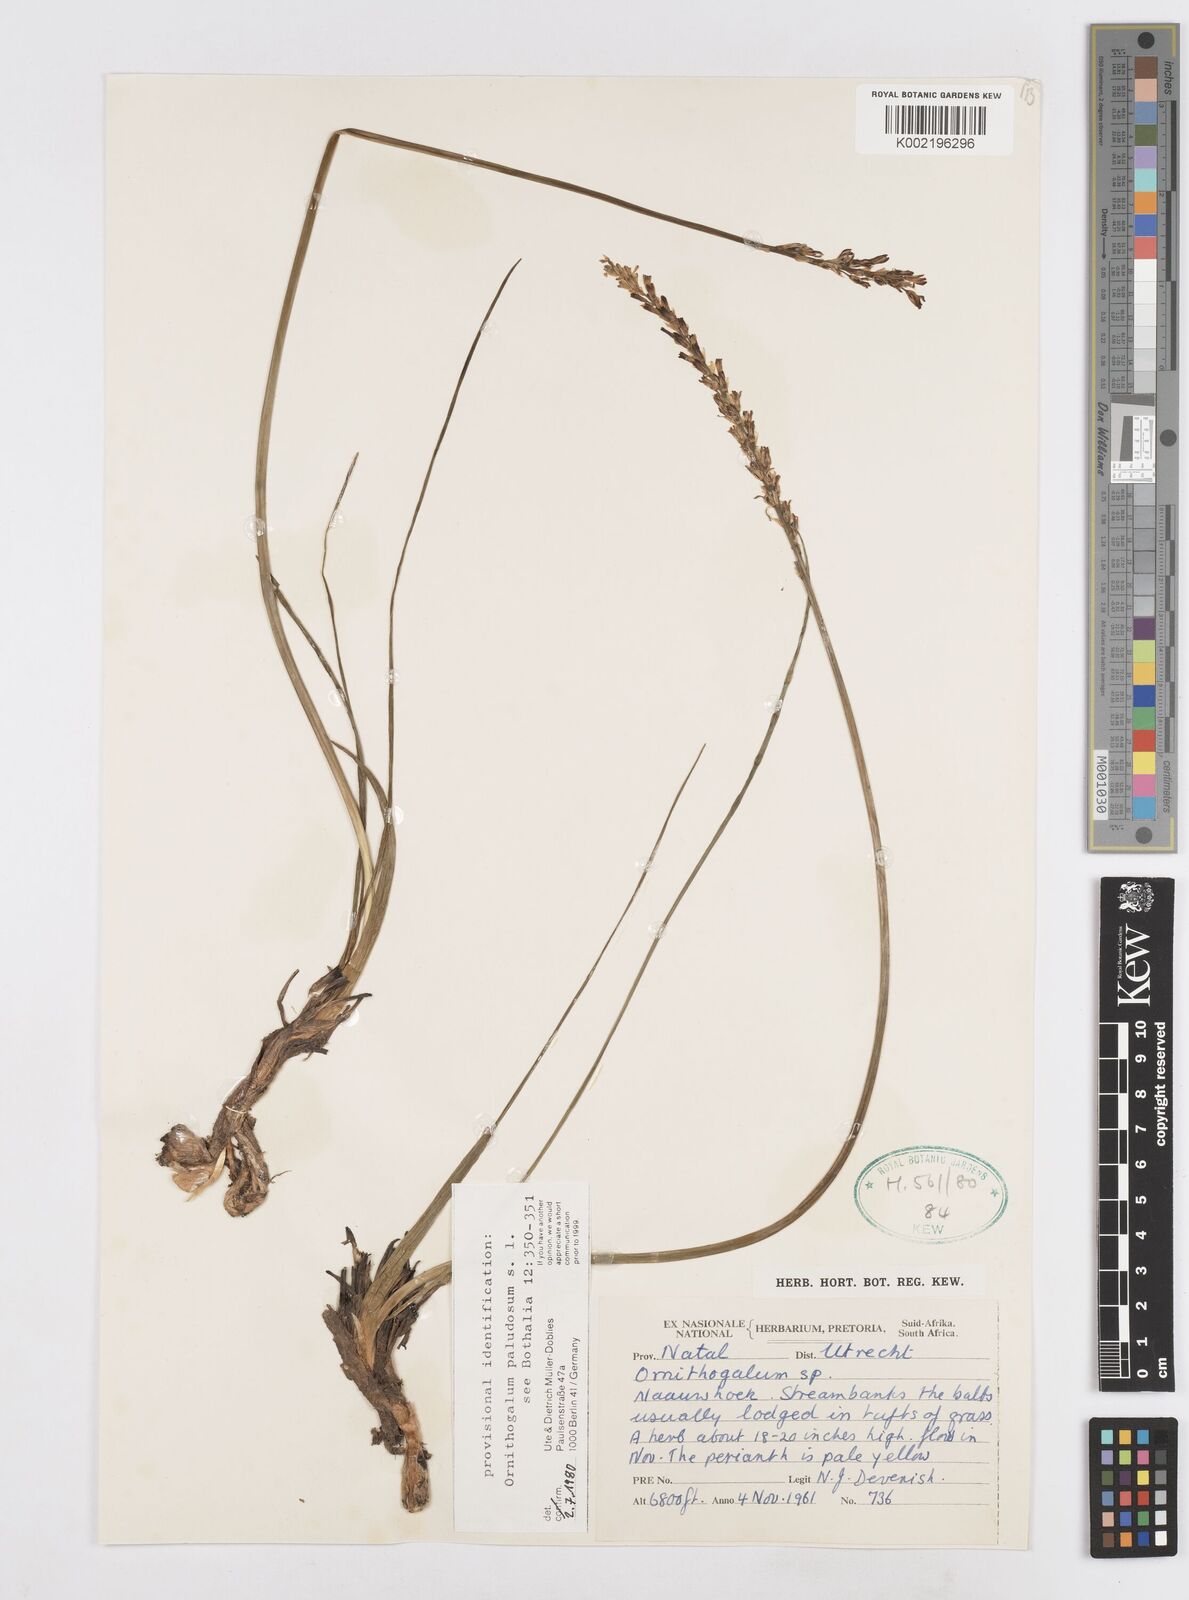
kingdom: Plantae
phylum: Tracheophyta
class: Liliopsida
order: Asparagales
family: Asparagaceae
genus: Ornithogalum
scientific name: Ornithogalum paludosum
